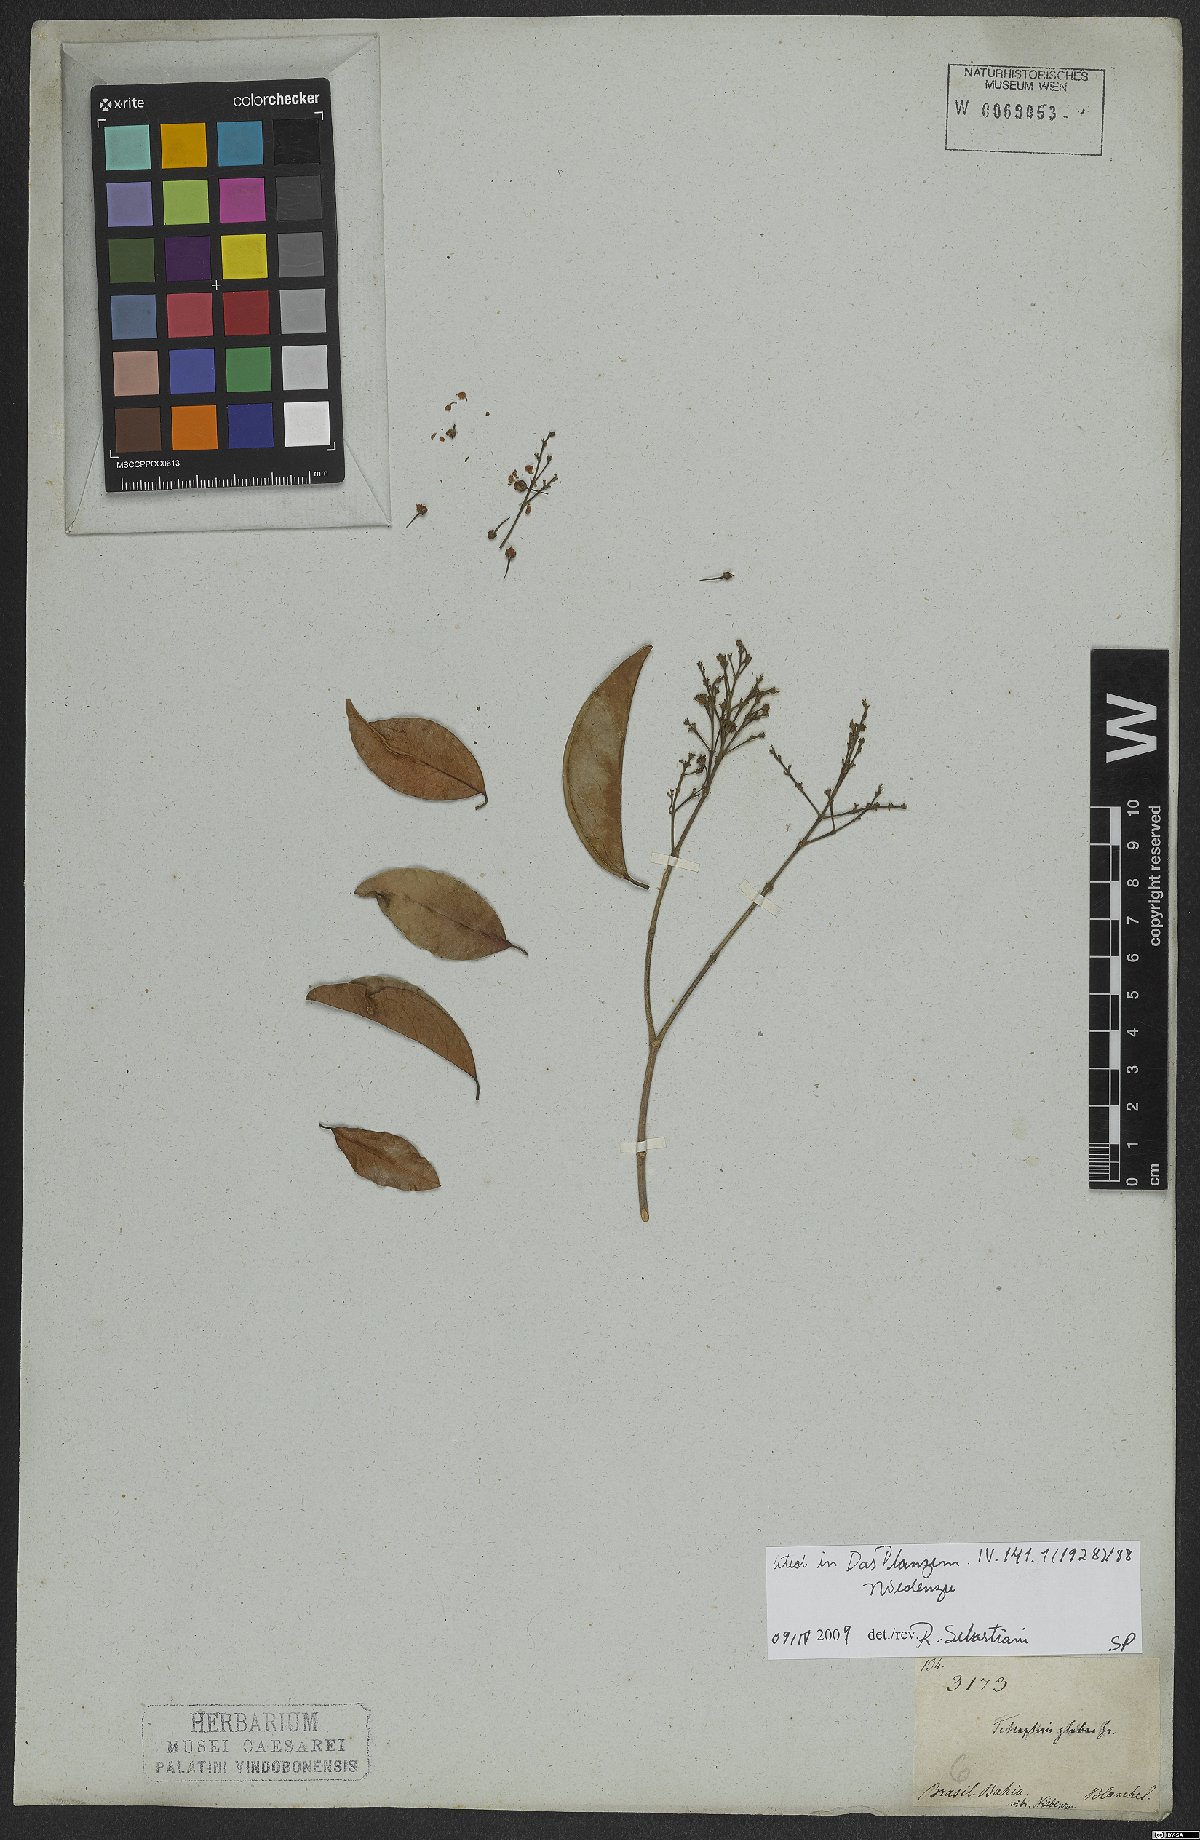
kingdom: Plantae
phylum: Tracheophyta
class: Magnoliopsida
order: Malpighiales
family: Malpighiaceae
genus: Niedenzuella
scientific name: Niedenzuella glabra
